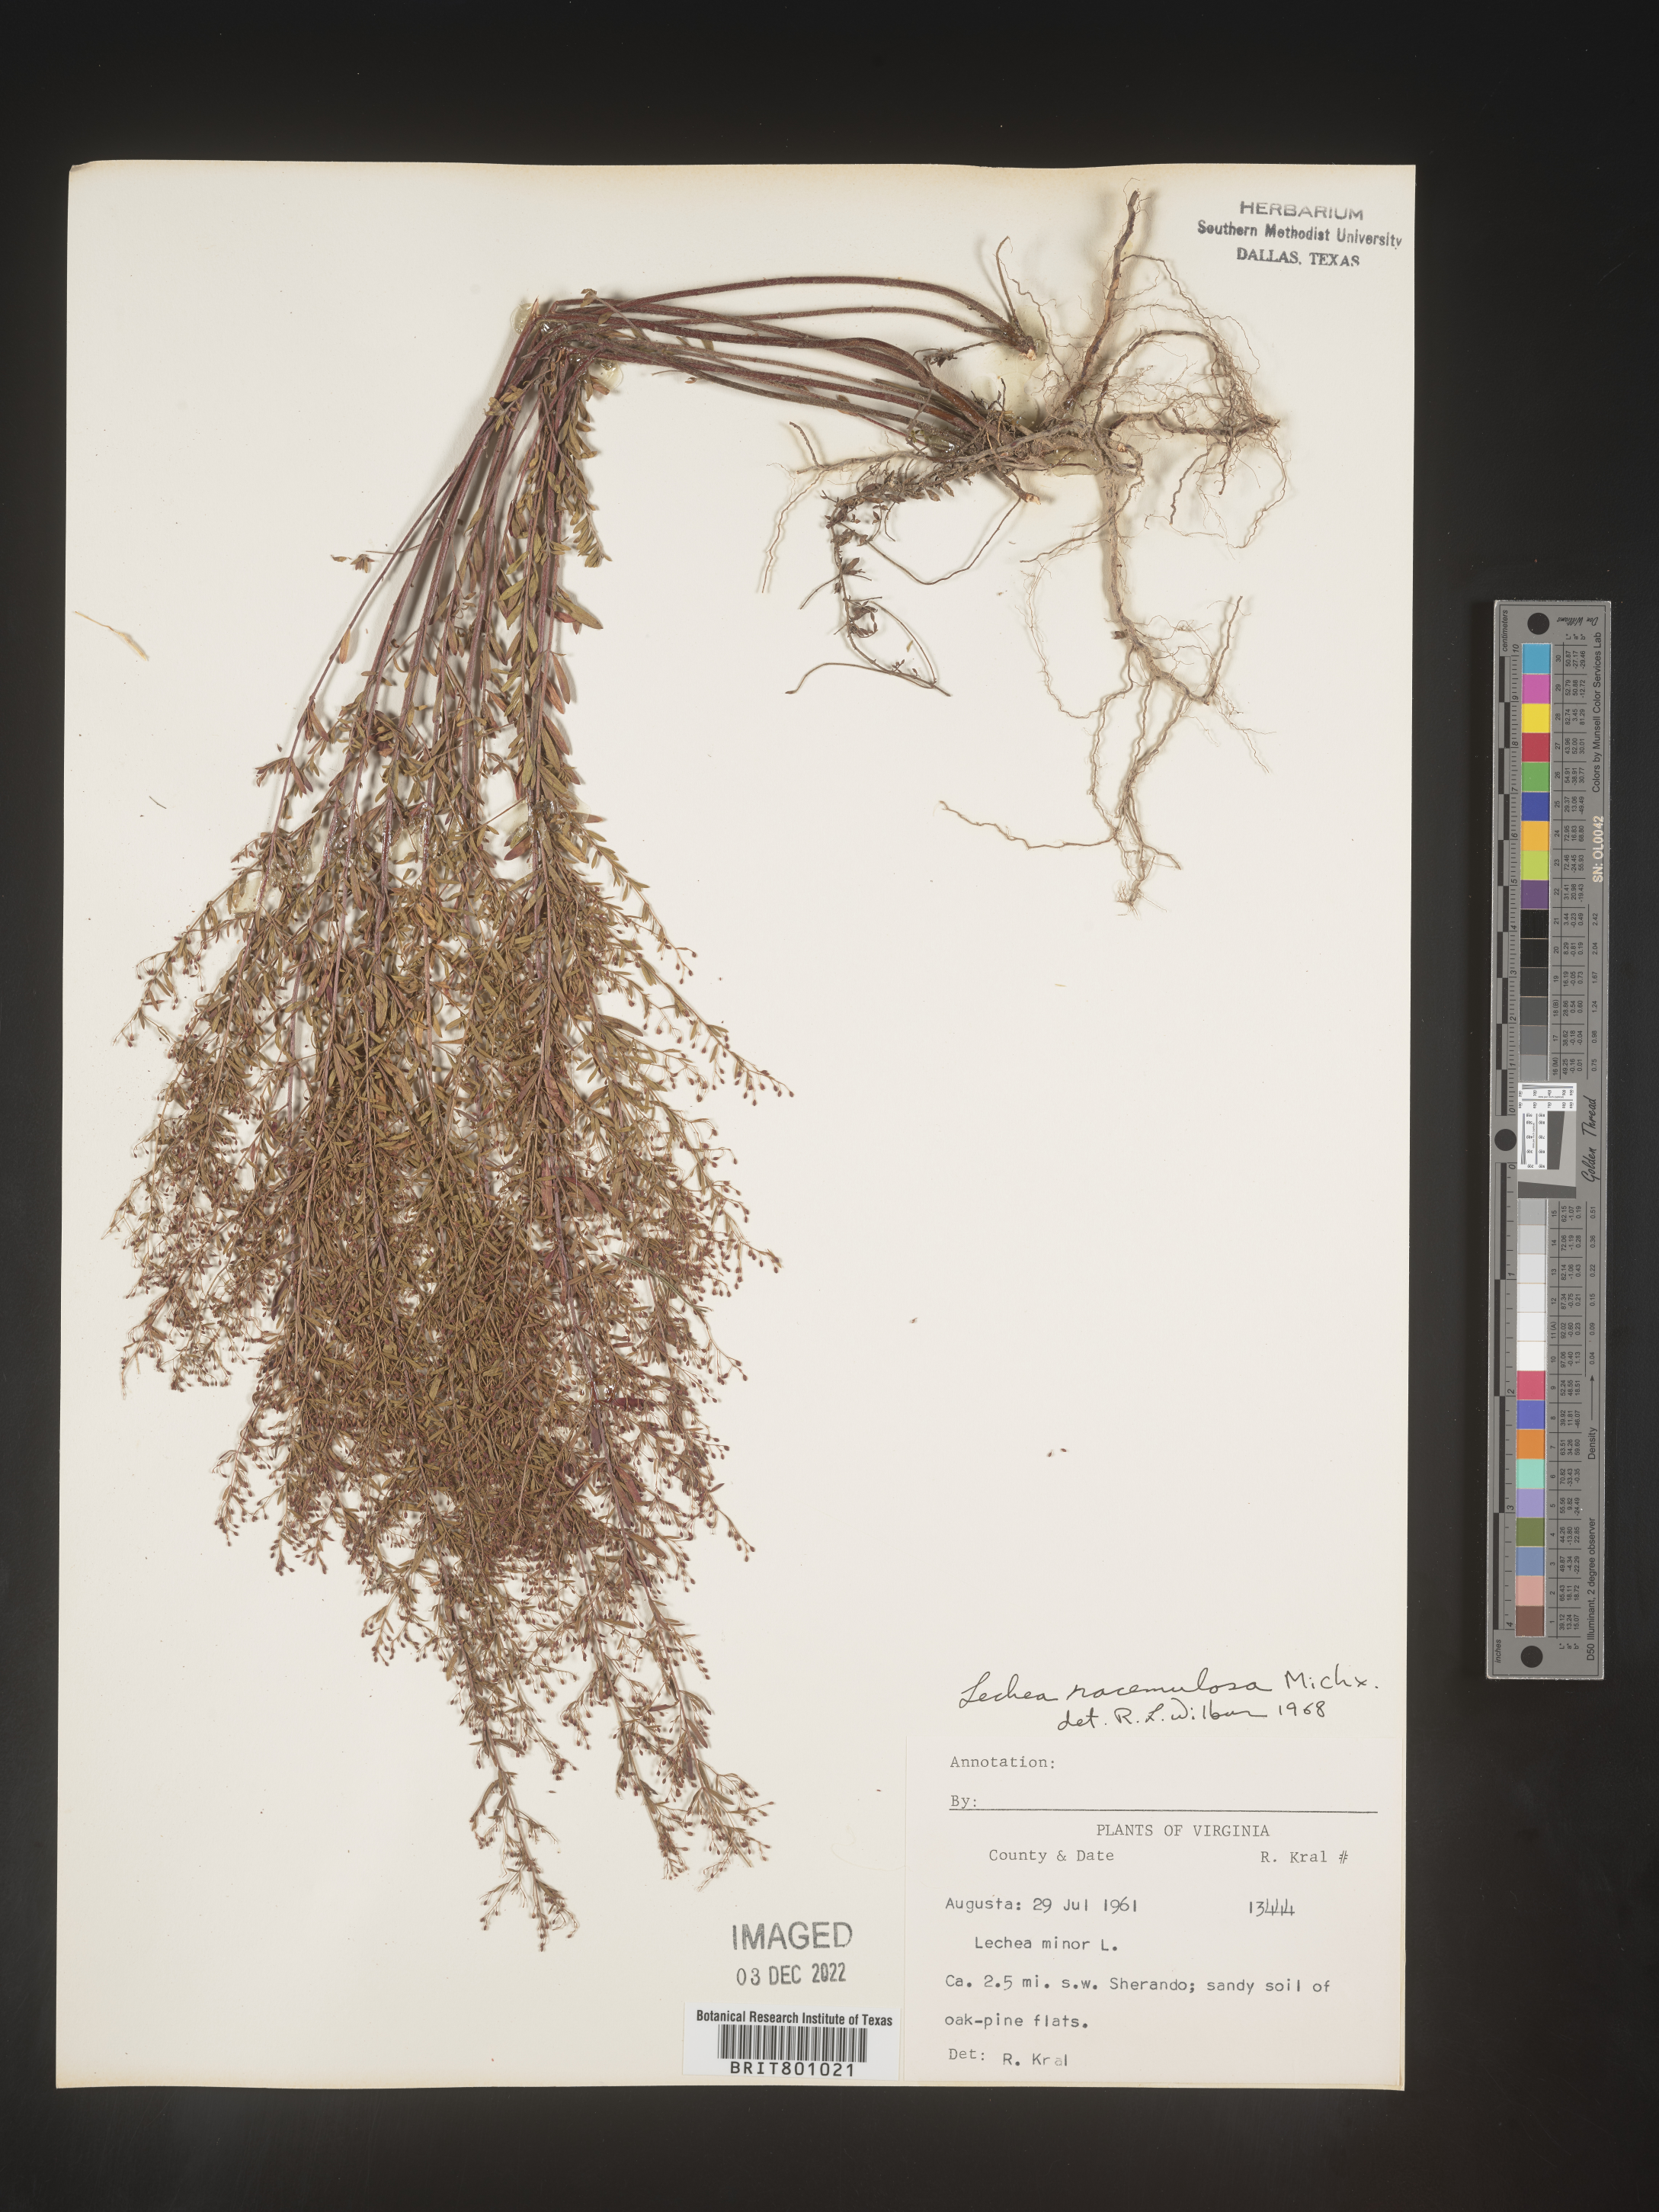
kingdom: Plantae
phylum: Tracheophyta
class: Magnoliopsida
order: Malvales
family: Cistaceae
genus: Lechea
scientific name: Lechea racemulosa
